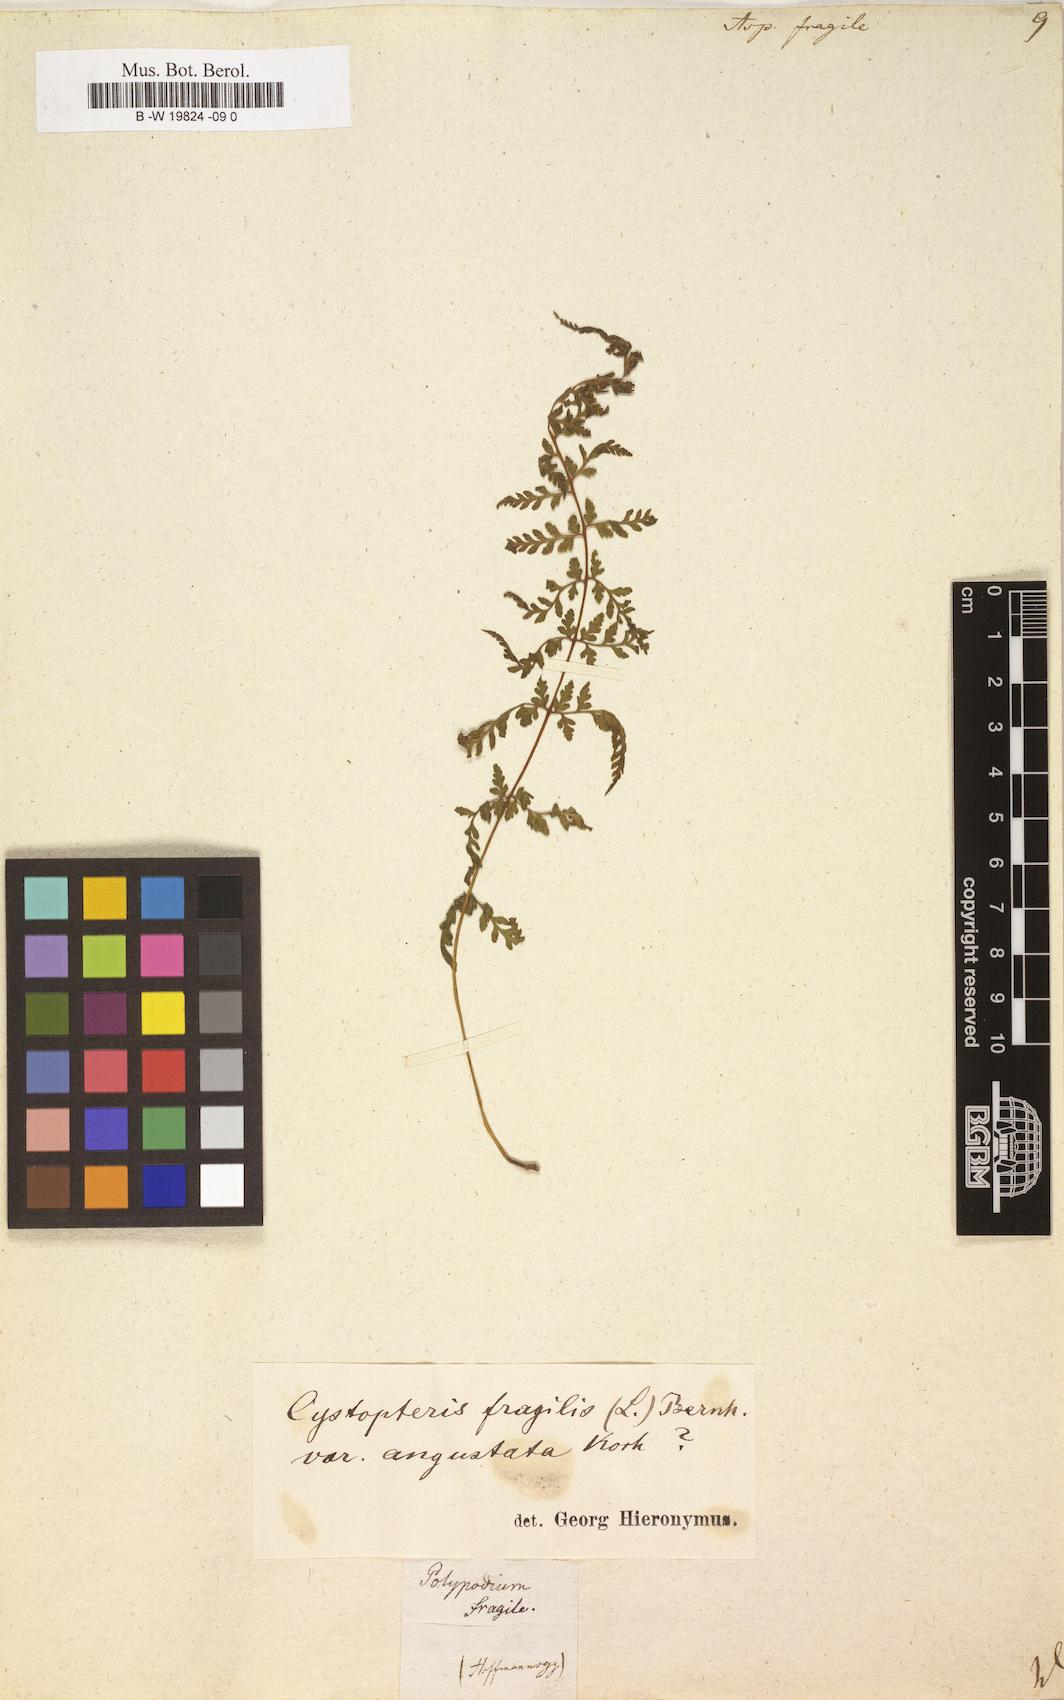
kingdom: Plantae
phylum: Tracheophyta
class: Polypodiopsida
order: Polypodiales
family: Cystopteridaceae
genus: Cystopteris
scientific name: Cystopteris fragilis
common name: Brittle bladder fern
